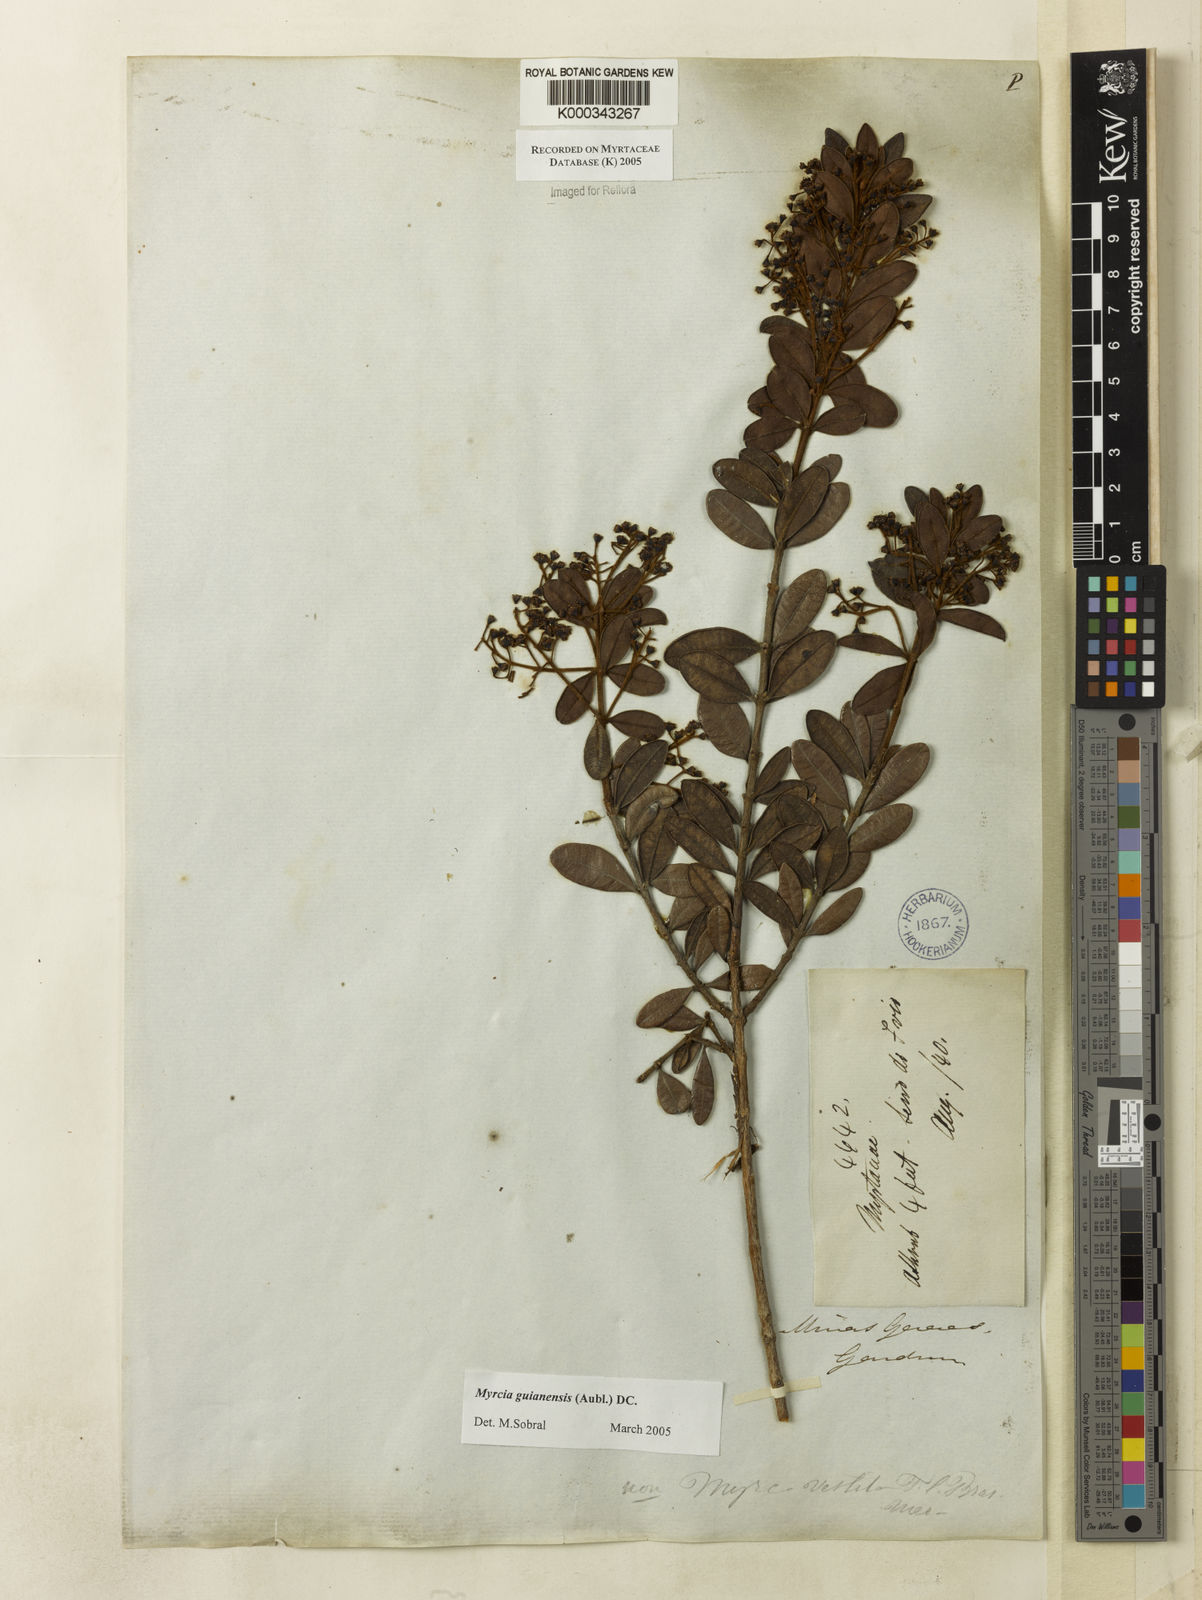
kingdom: Plantae
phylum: Tracheophyta
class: Magnoliopsida
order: Myrtales
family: Myrtaceae
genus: Myrcia
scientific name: Myrcia guianensis
